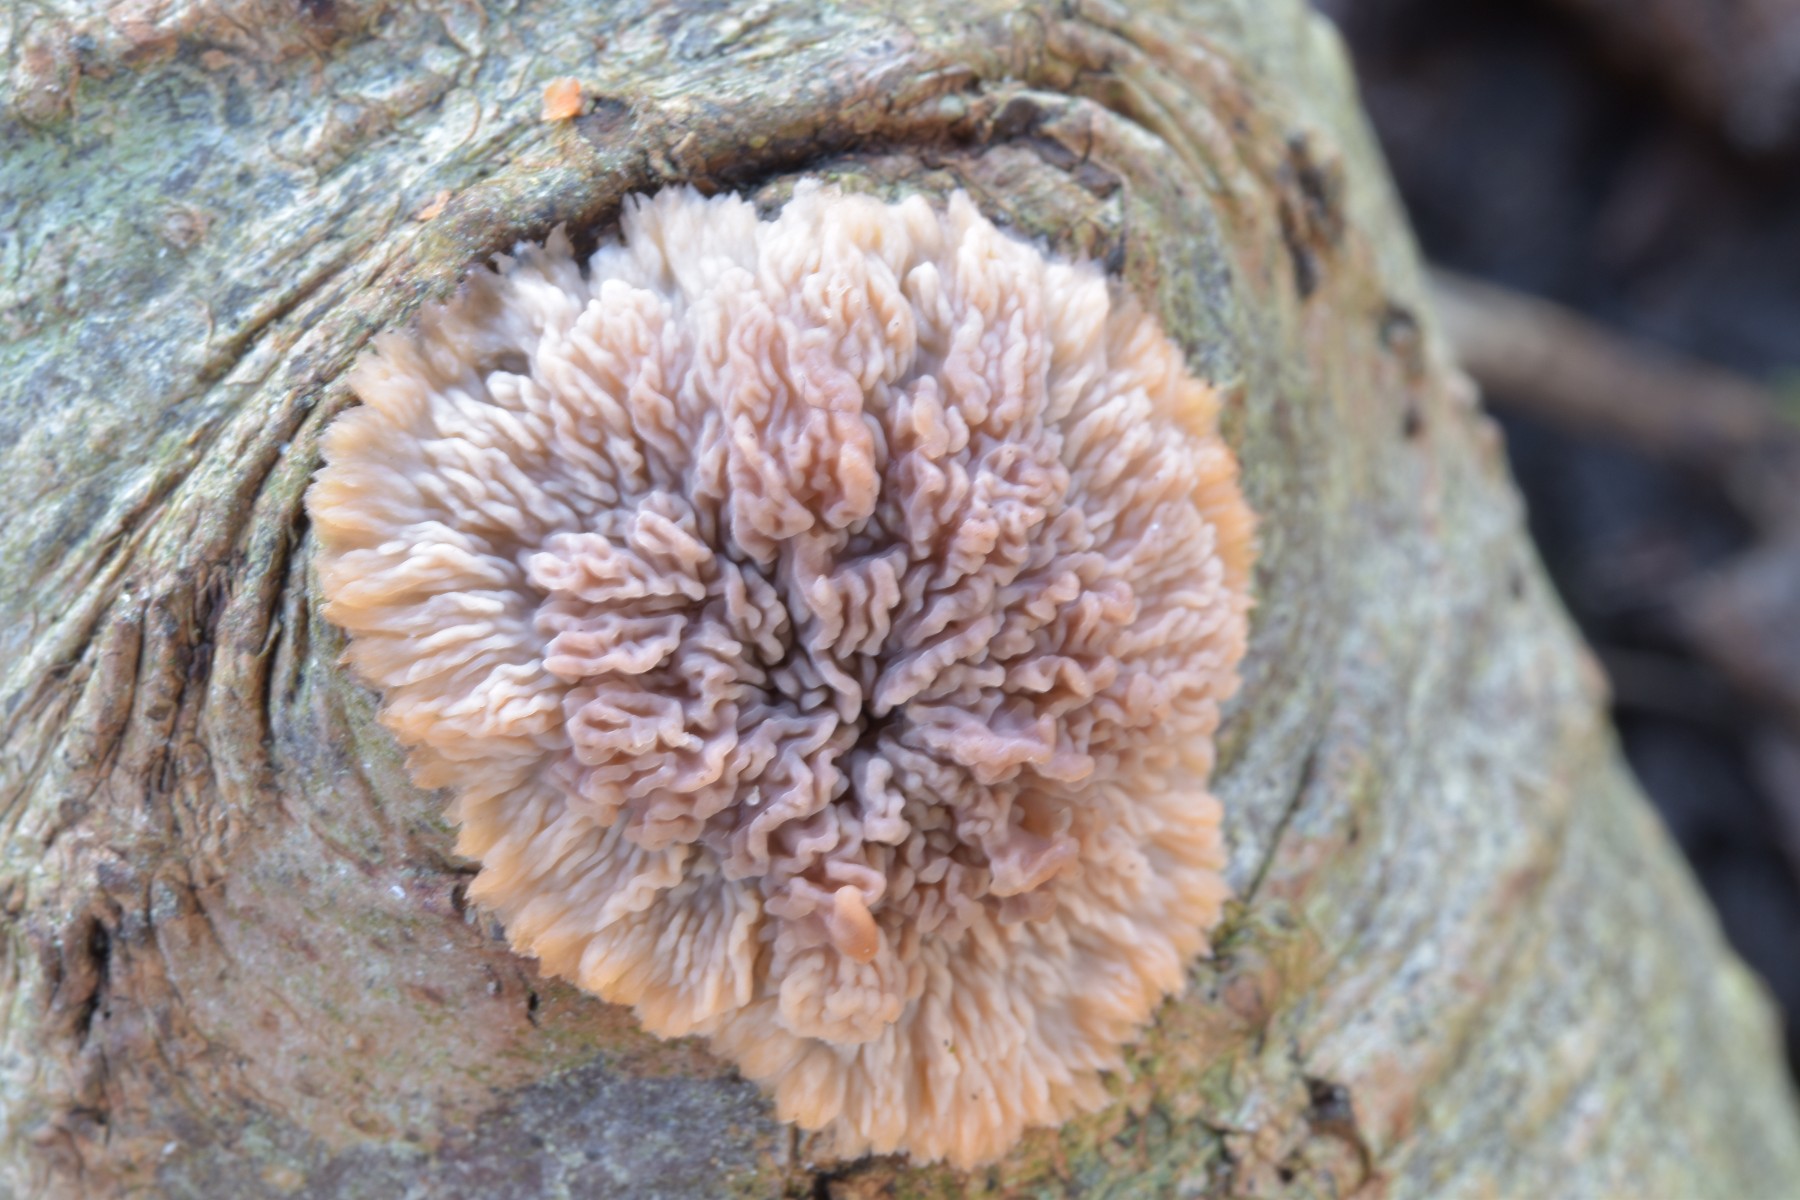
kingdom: Fungi
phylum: Basidiomycota
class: Agaricomycetes
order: Polyporales
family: Meruliaceae
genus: Phlebia
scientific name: Phlebia radiata
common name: stråle-åresvamp
